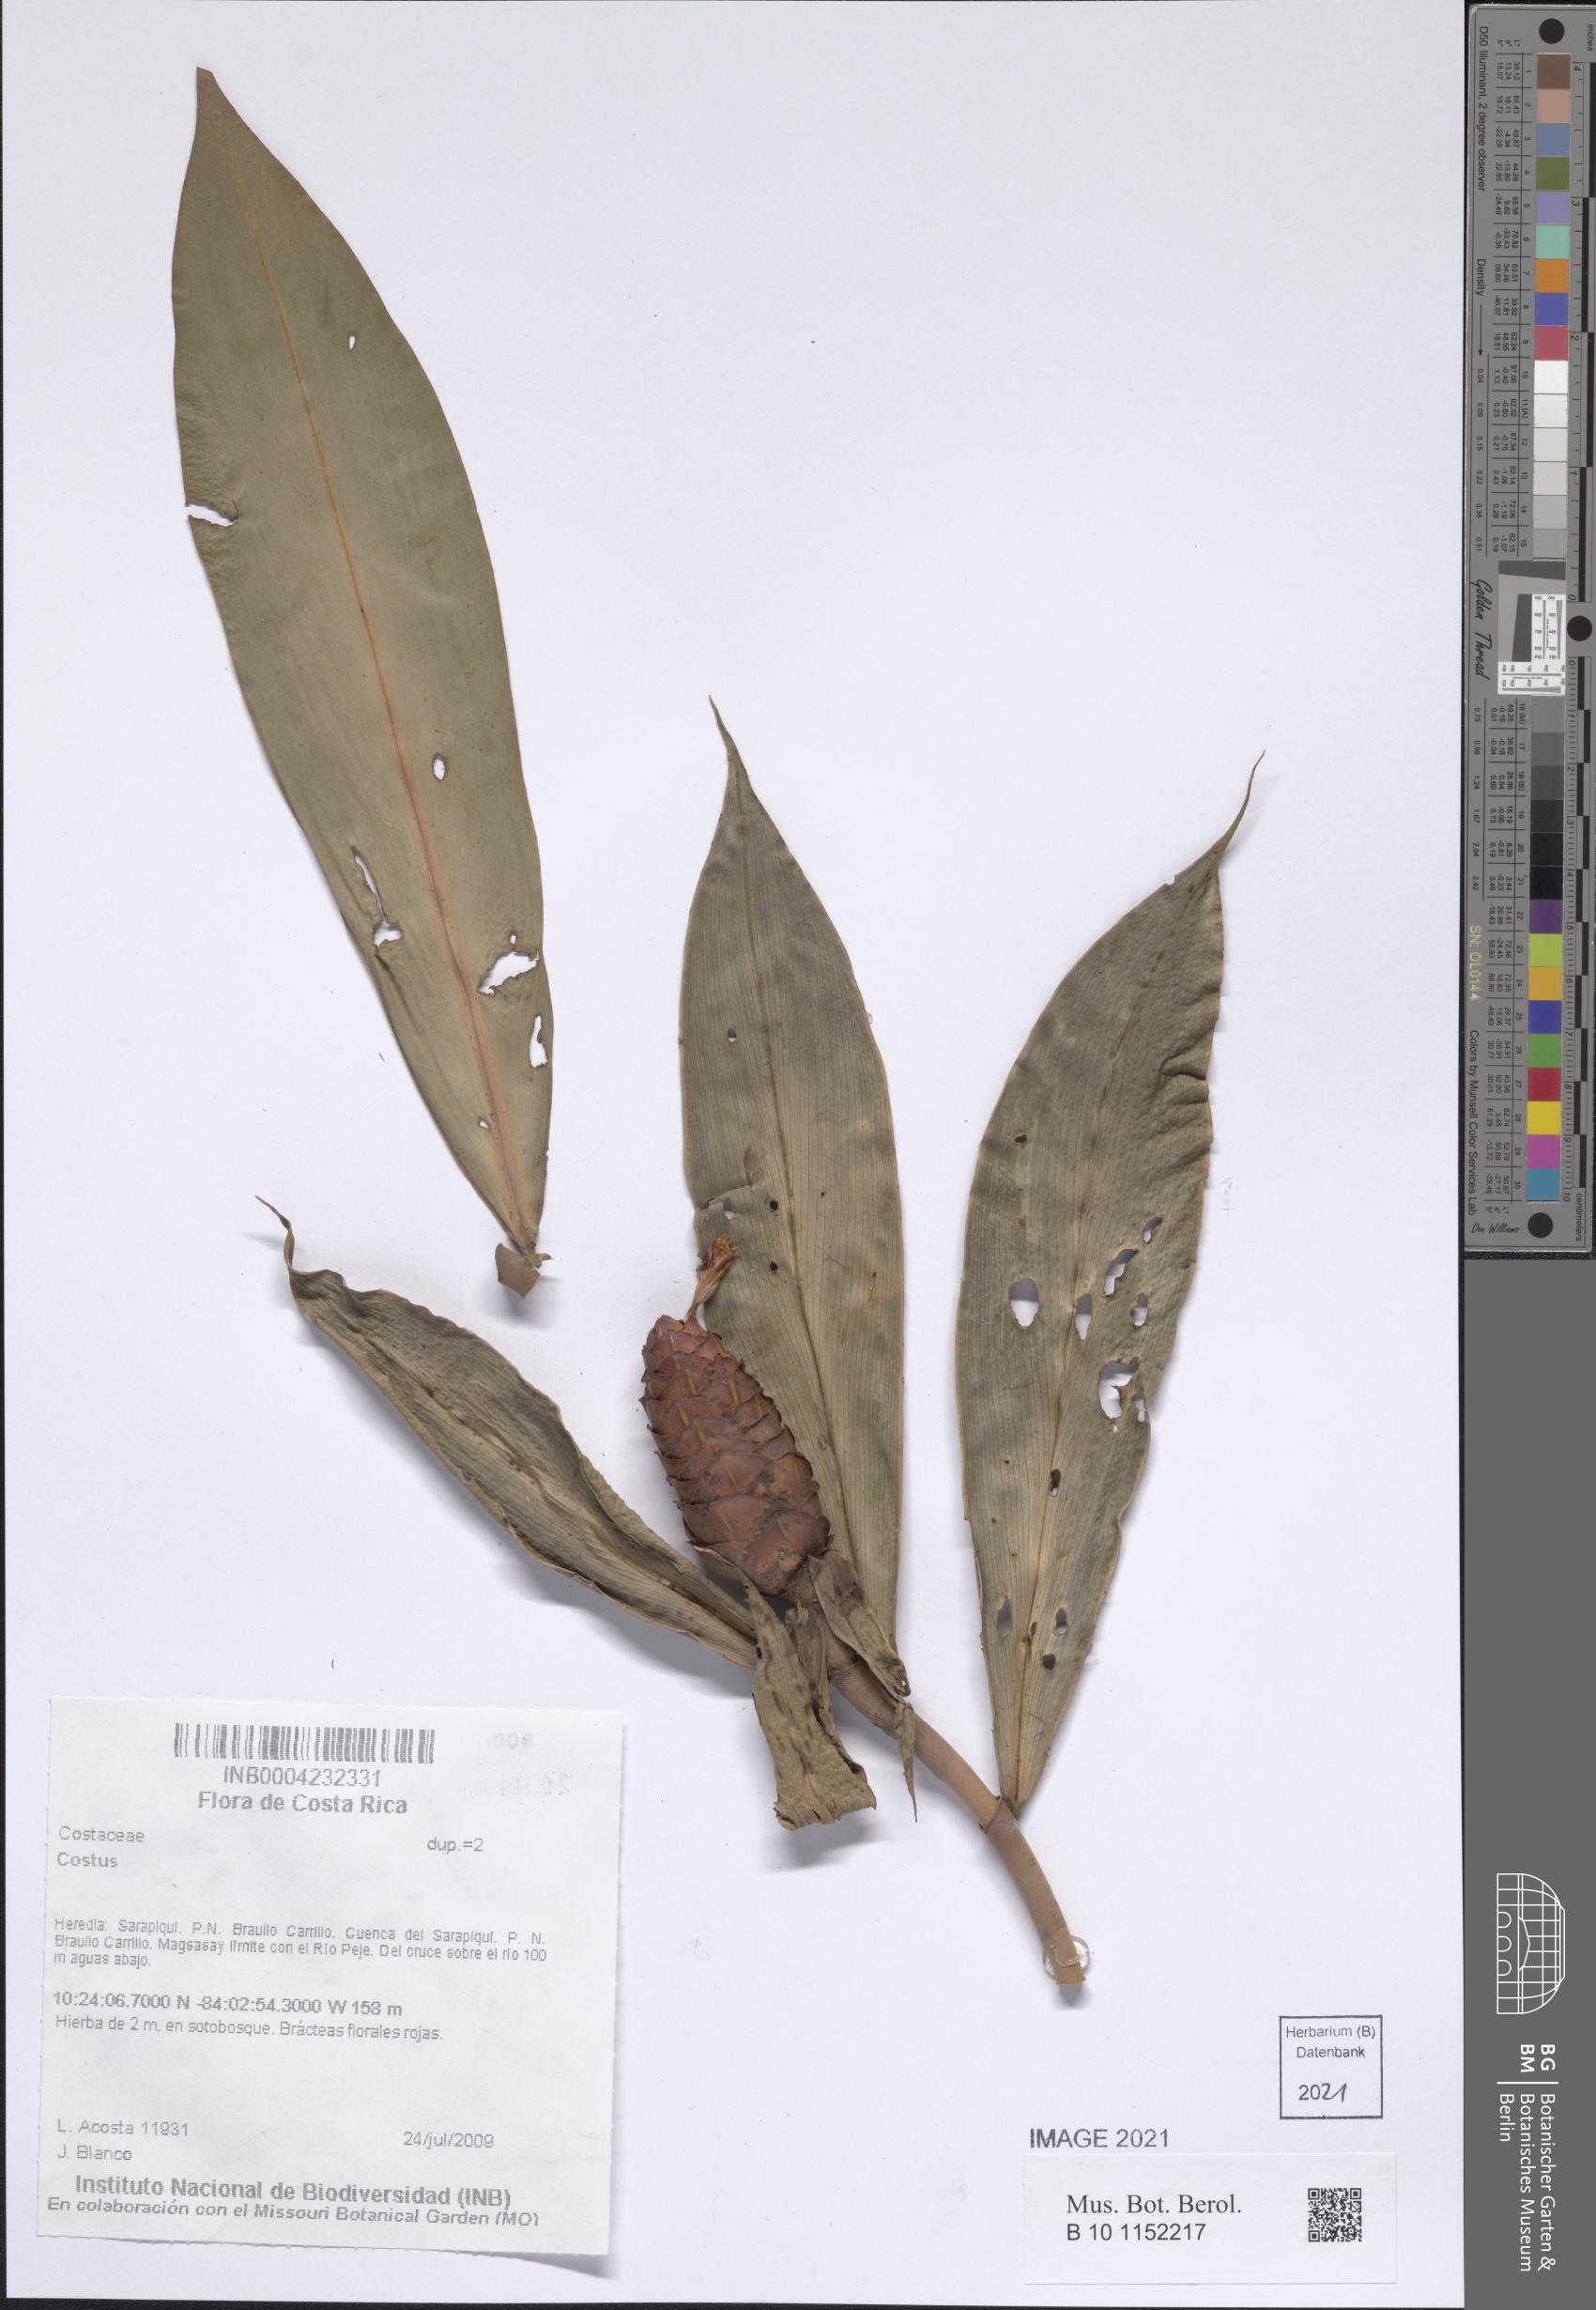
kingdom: Plantae
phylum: Tracheophyta
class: Liliopsida
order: Zingiberales
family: Costaceae
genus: Costus
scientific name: Costus
